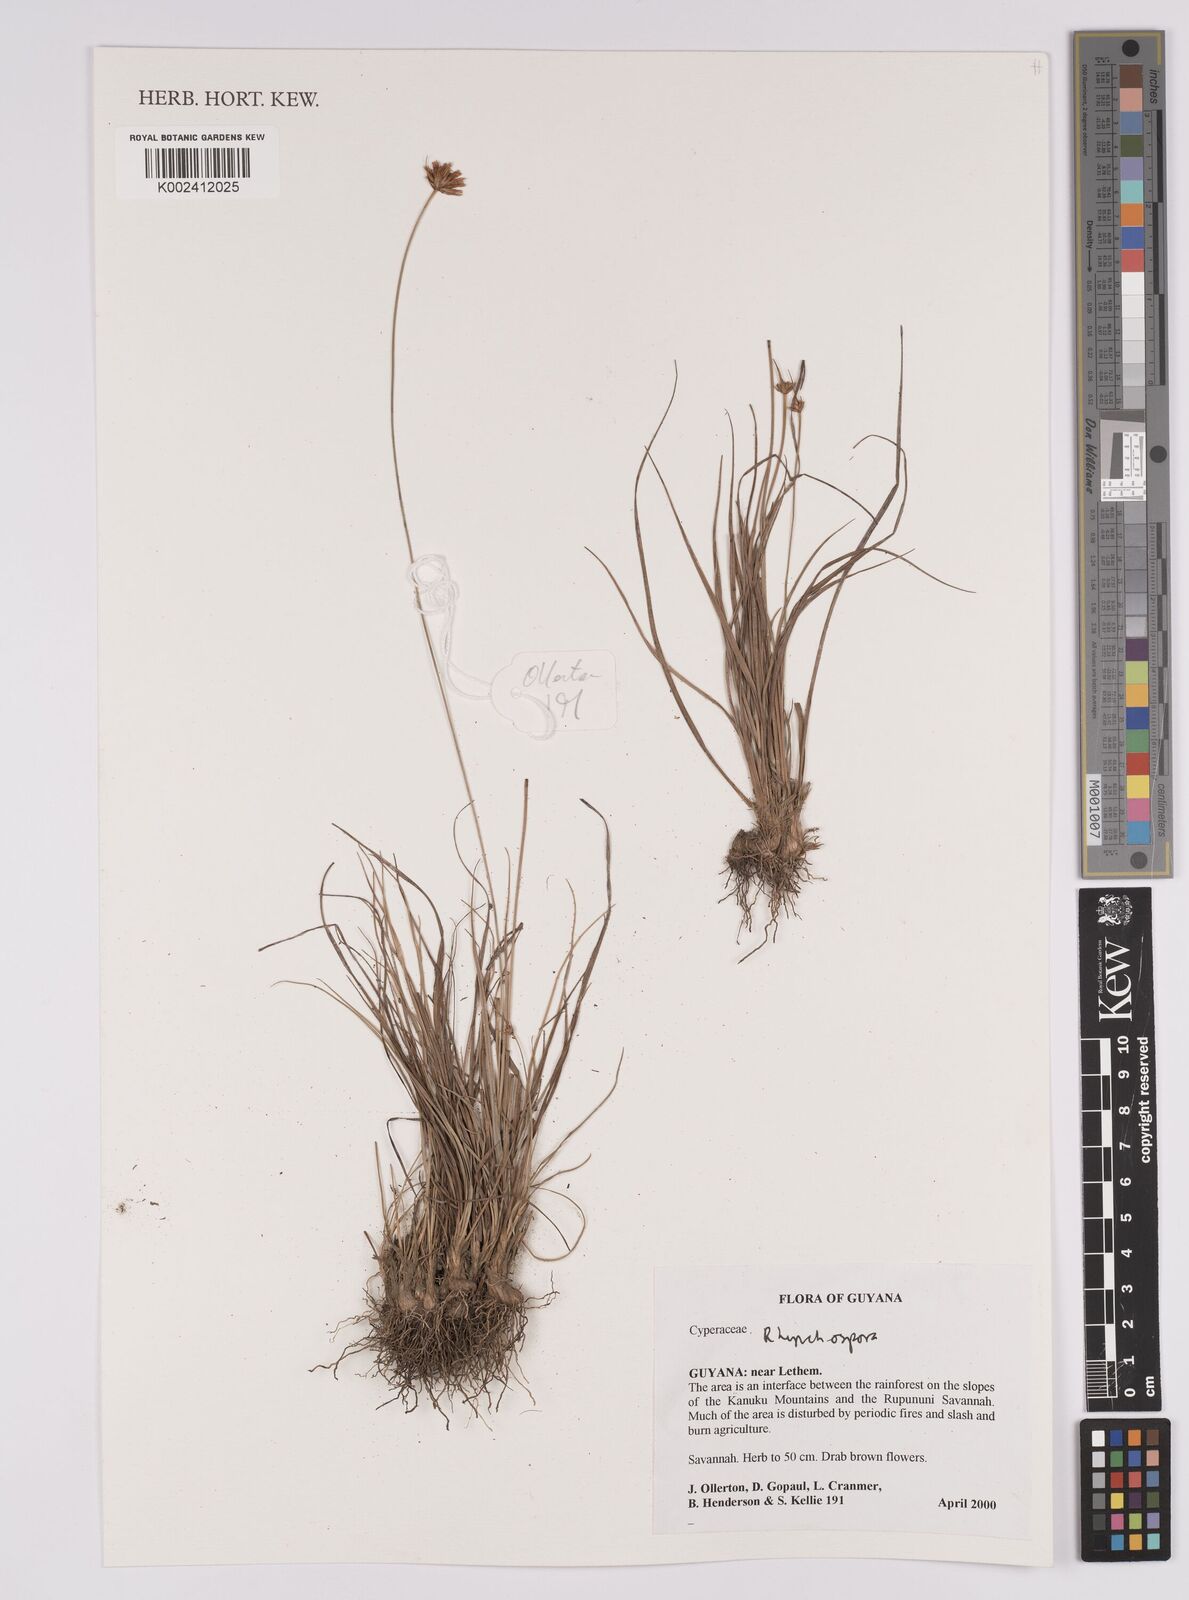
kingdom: Plantae
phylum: Tracheophyta
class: Liliopsida
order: Poales
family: Cyperaceae
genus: Rhynchospora
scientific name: Rhynchospora
